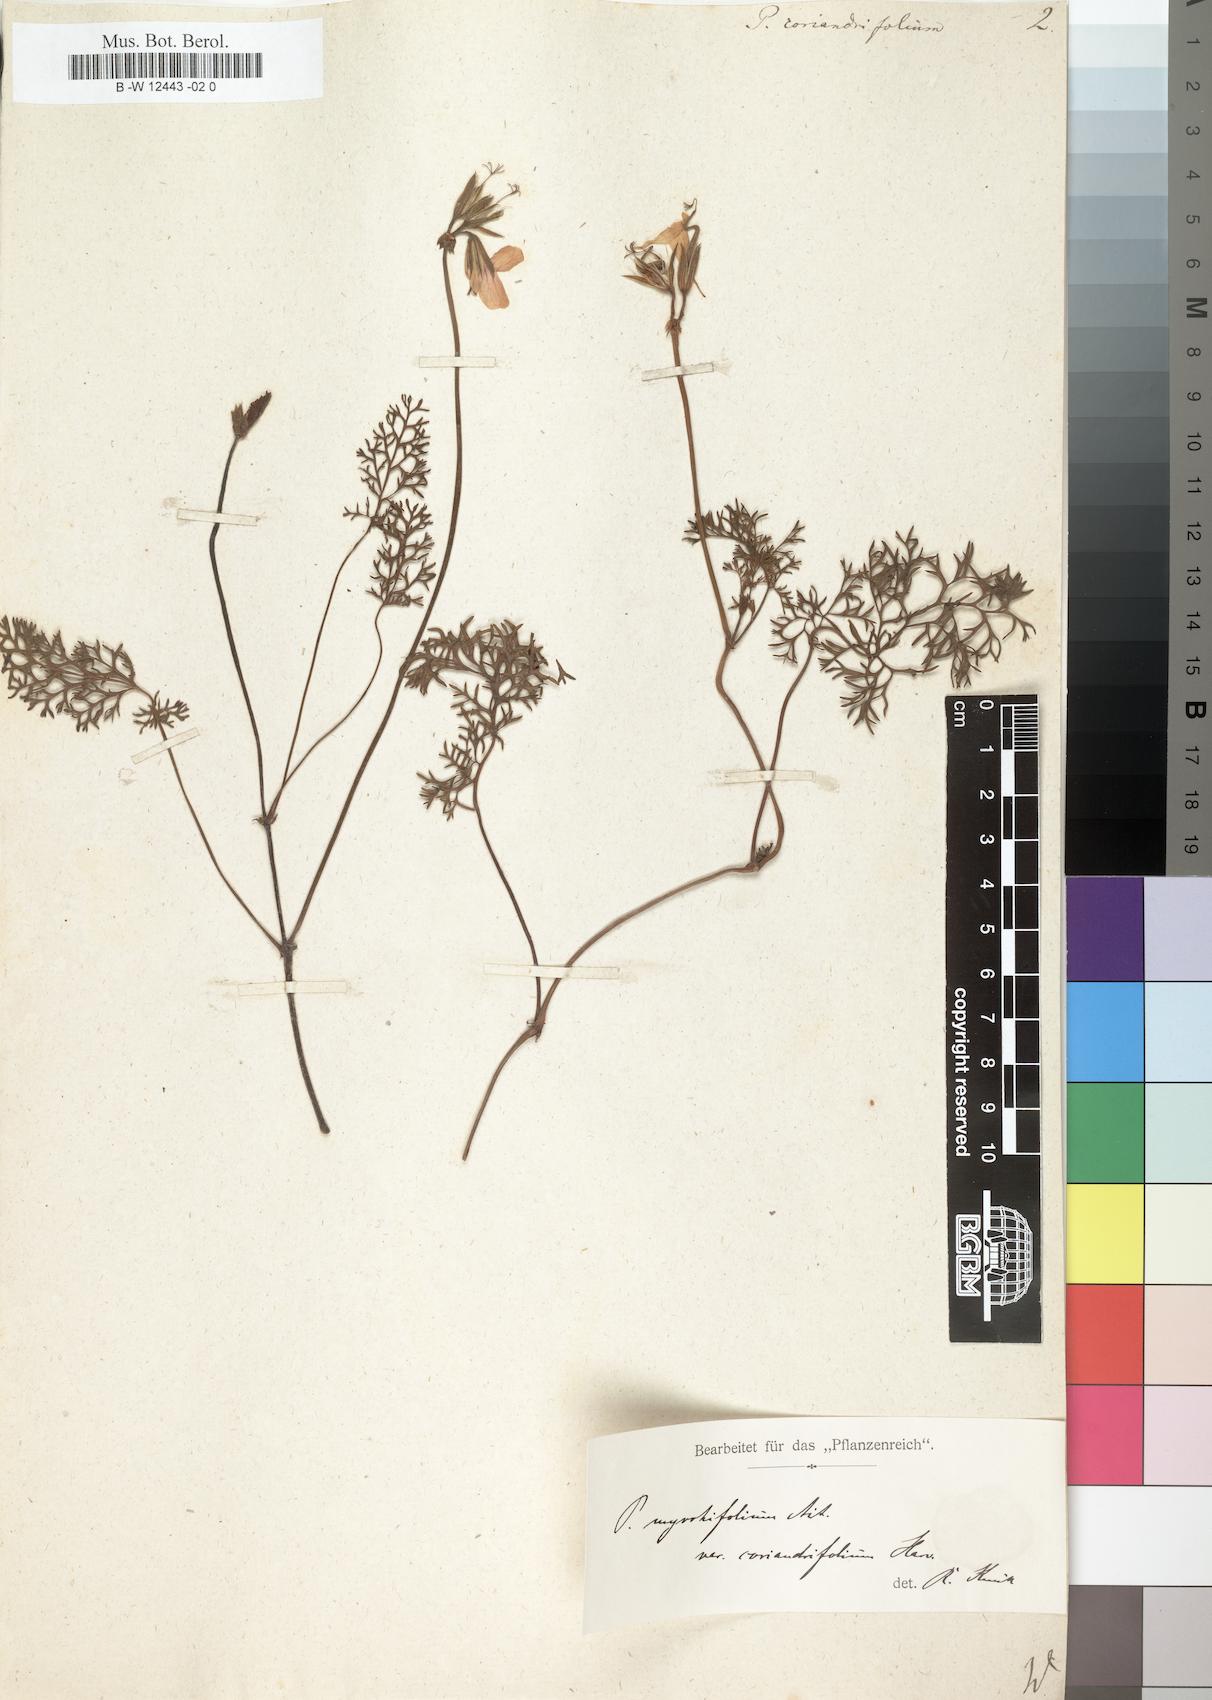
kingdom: Plantae
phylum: Tracheophyta
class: Magnoliopsida
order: Geraniales
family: Geraniaceae
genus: Pelargonium
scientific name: Pelargonium myrrhifolium
